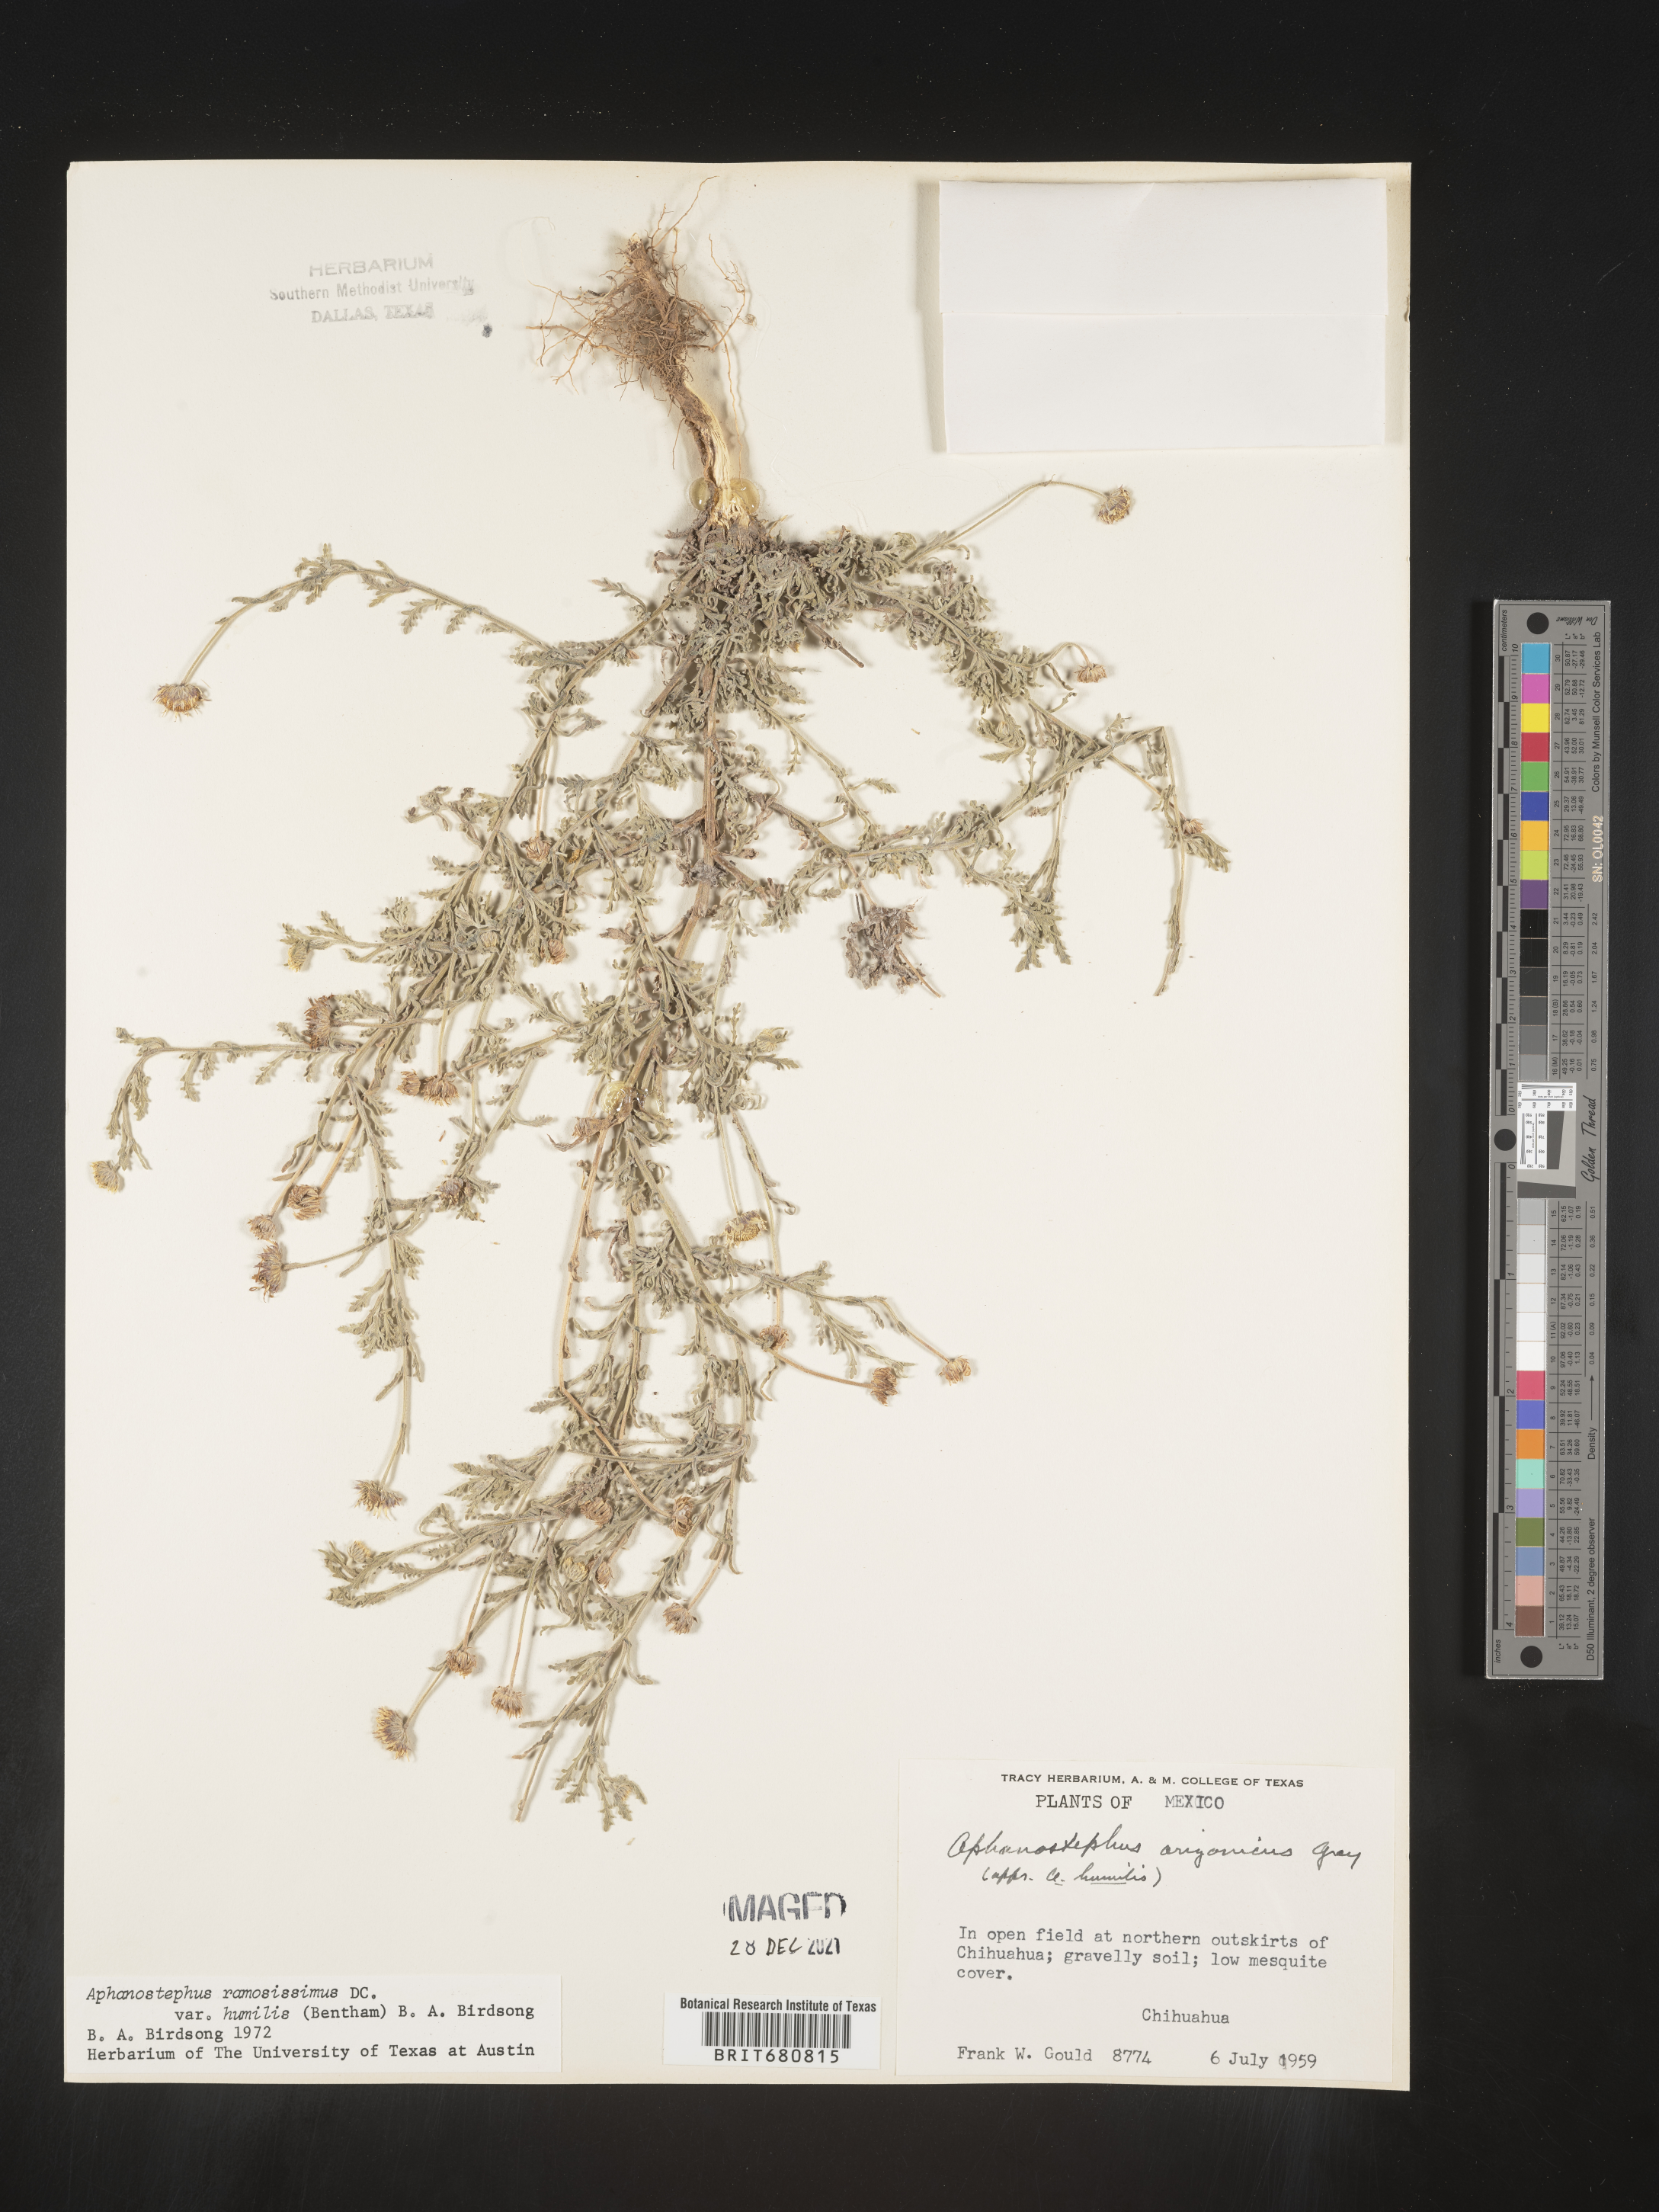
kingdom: Plantae
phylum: Tracheophyta
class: Magnoliopsida
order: Asterales
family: Asteraceae
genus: Aphanostephus
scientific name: Aphanostephus ramosissimus
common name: Plains lazy daisy
